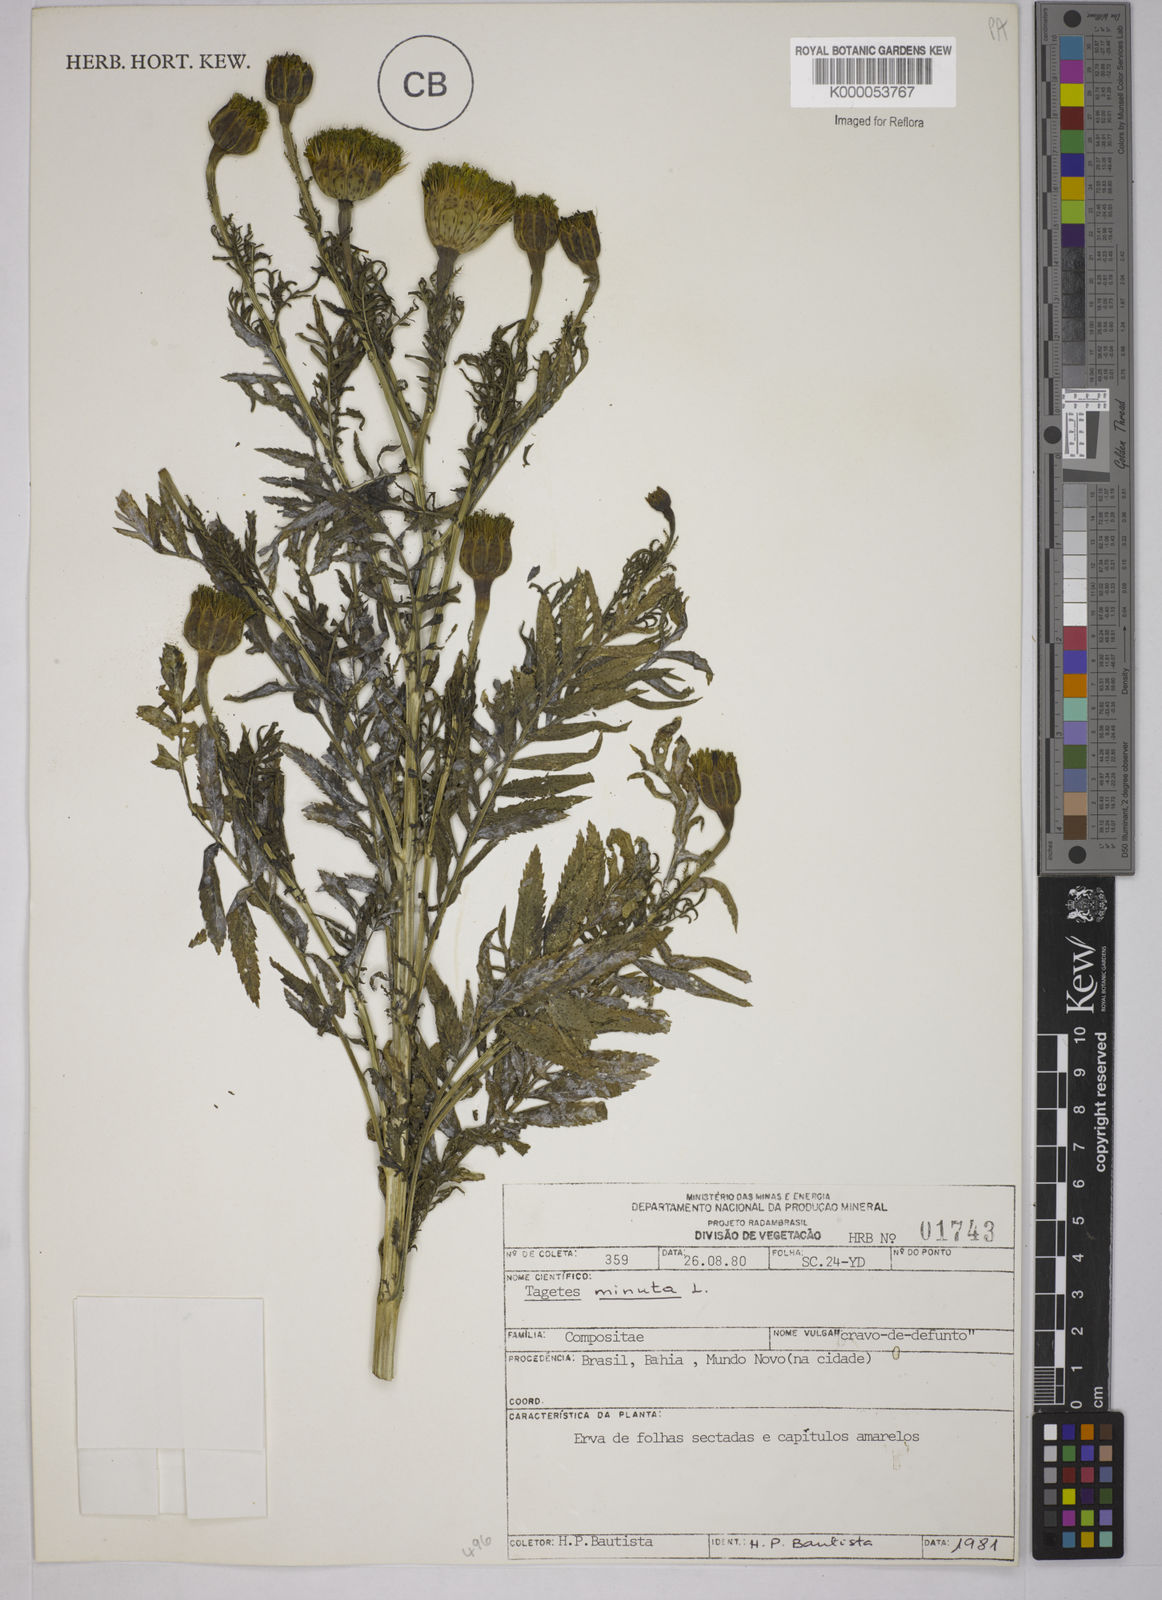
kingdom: Plantae
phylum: Tracheophyta
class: Magnoliopsida
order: Asterales
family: Asteraceae
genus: Tagetes
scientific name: Tagetes erecta
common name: African marigold
